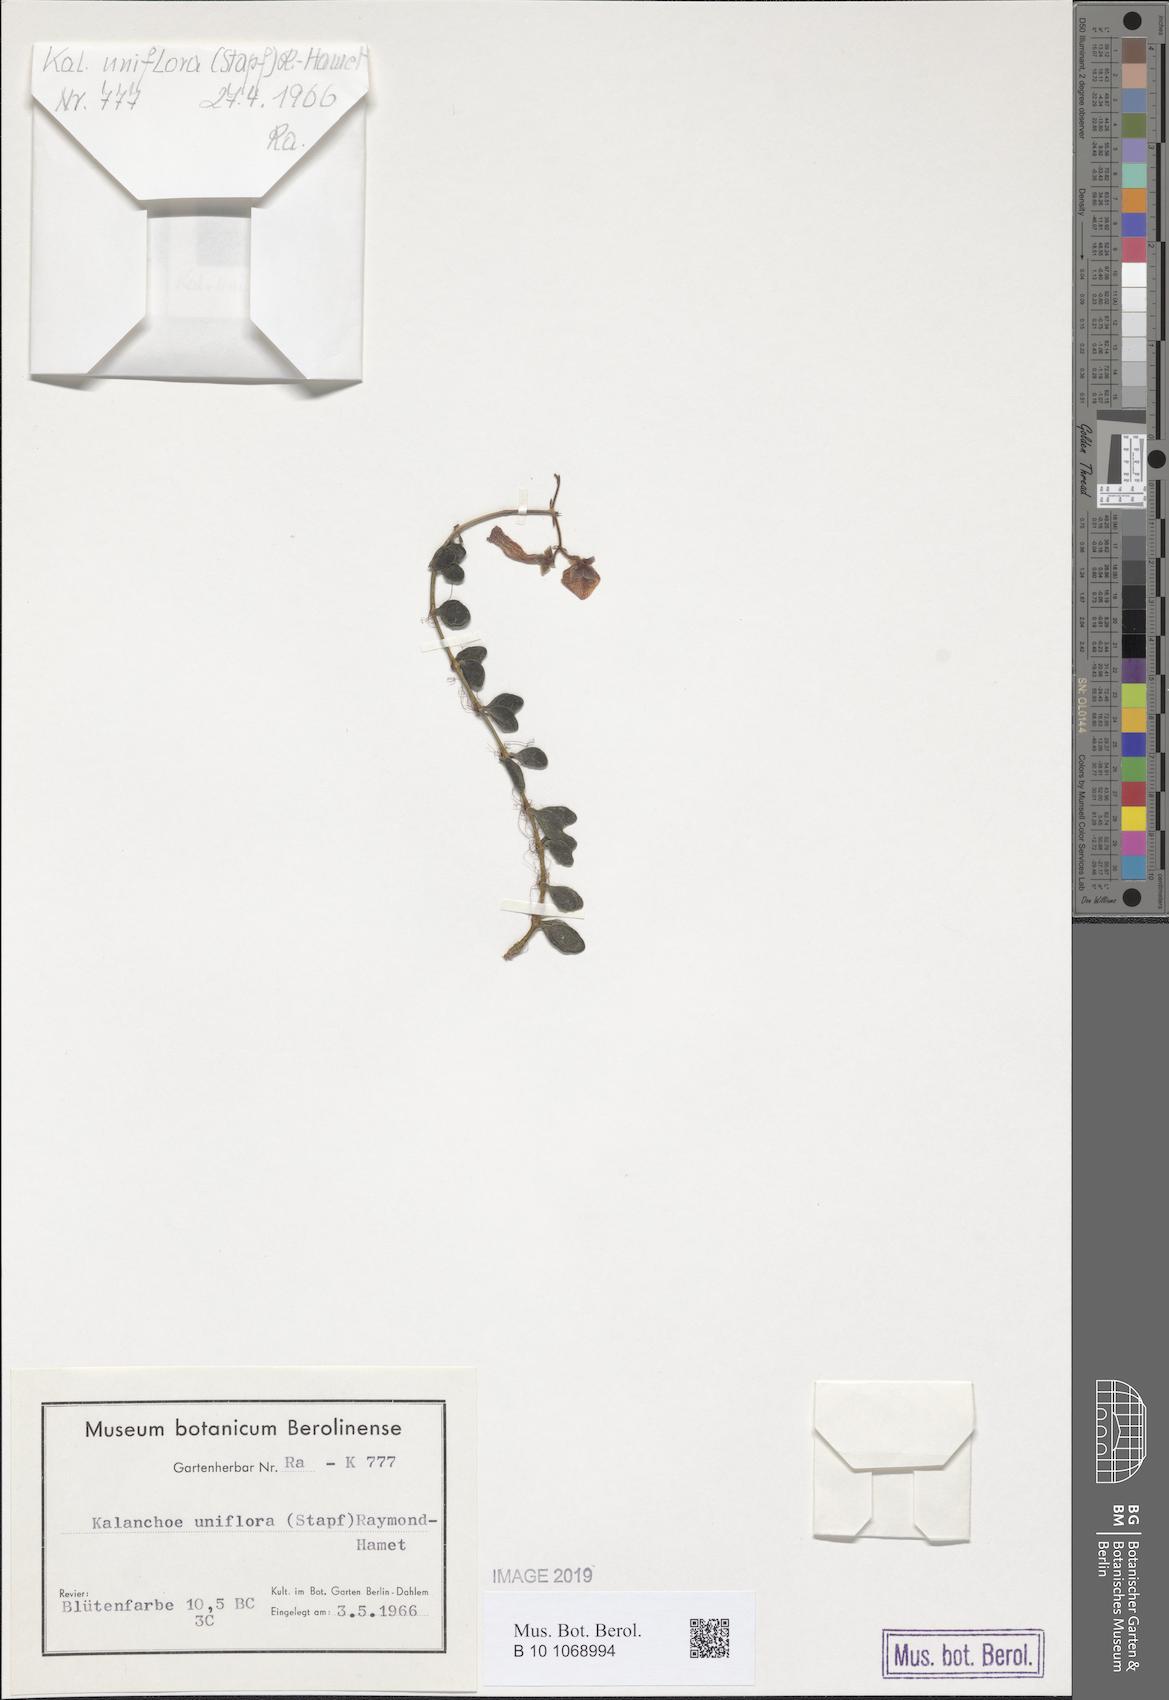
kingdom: Plantae
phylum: Tracheophyta
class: Magnoliopsida
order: Saxifragales
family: Crassulaceae
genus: Kalanchoe
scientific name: Kalanchoe uniflora
